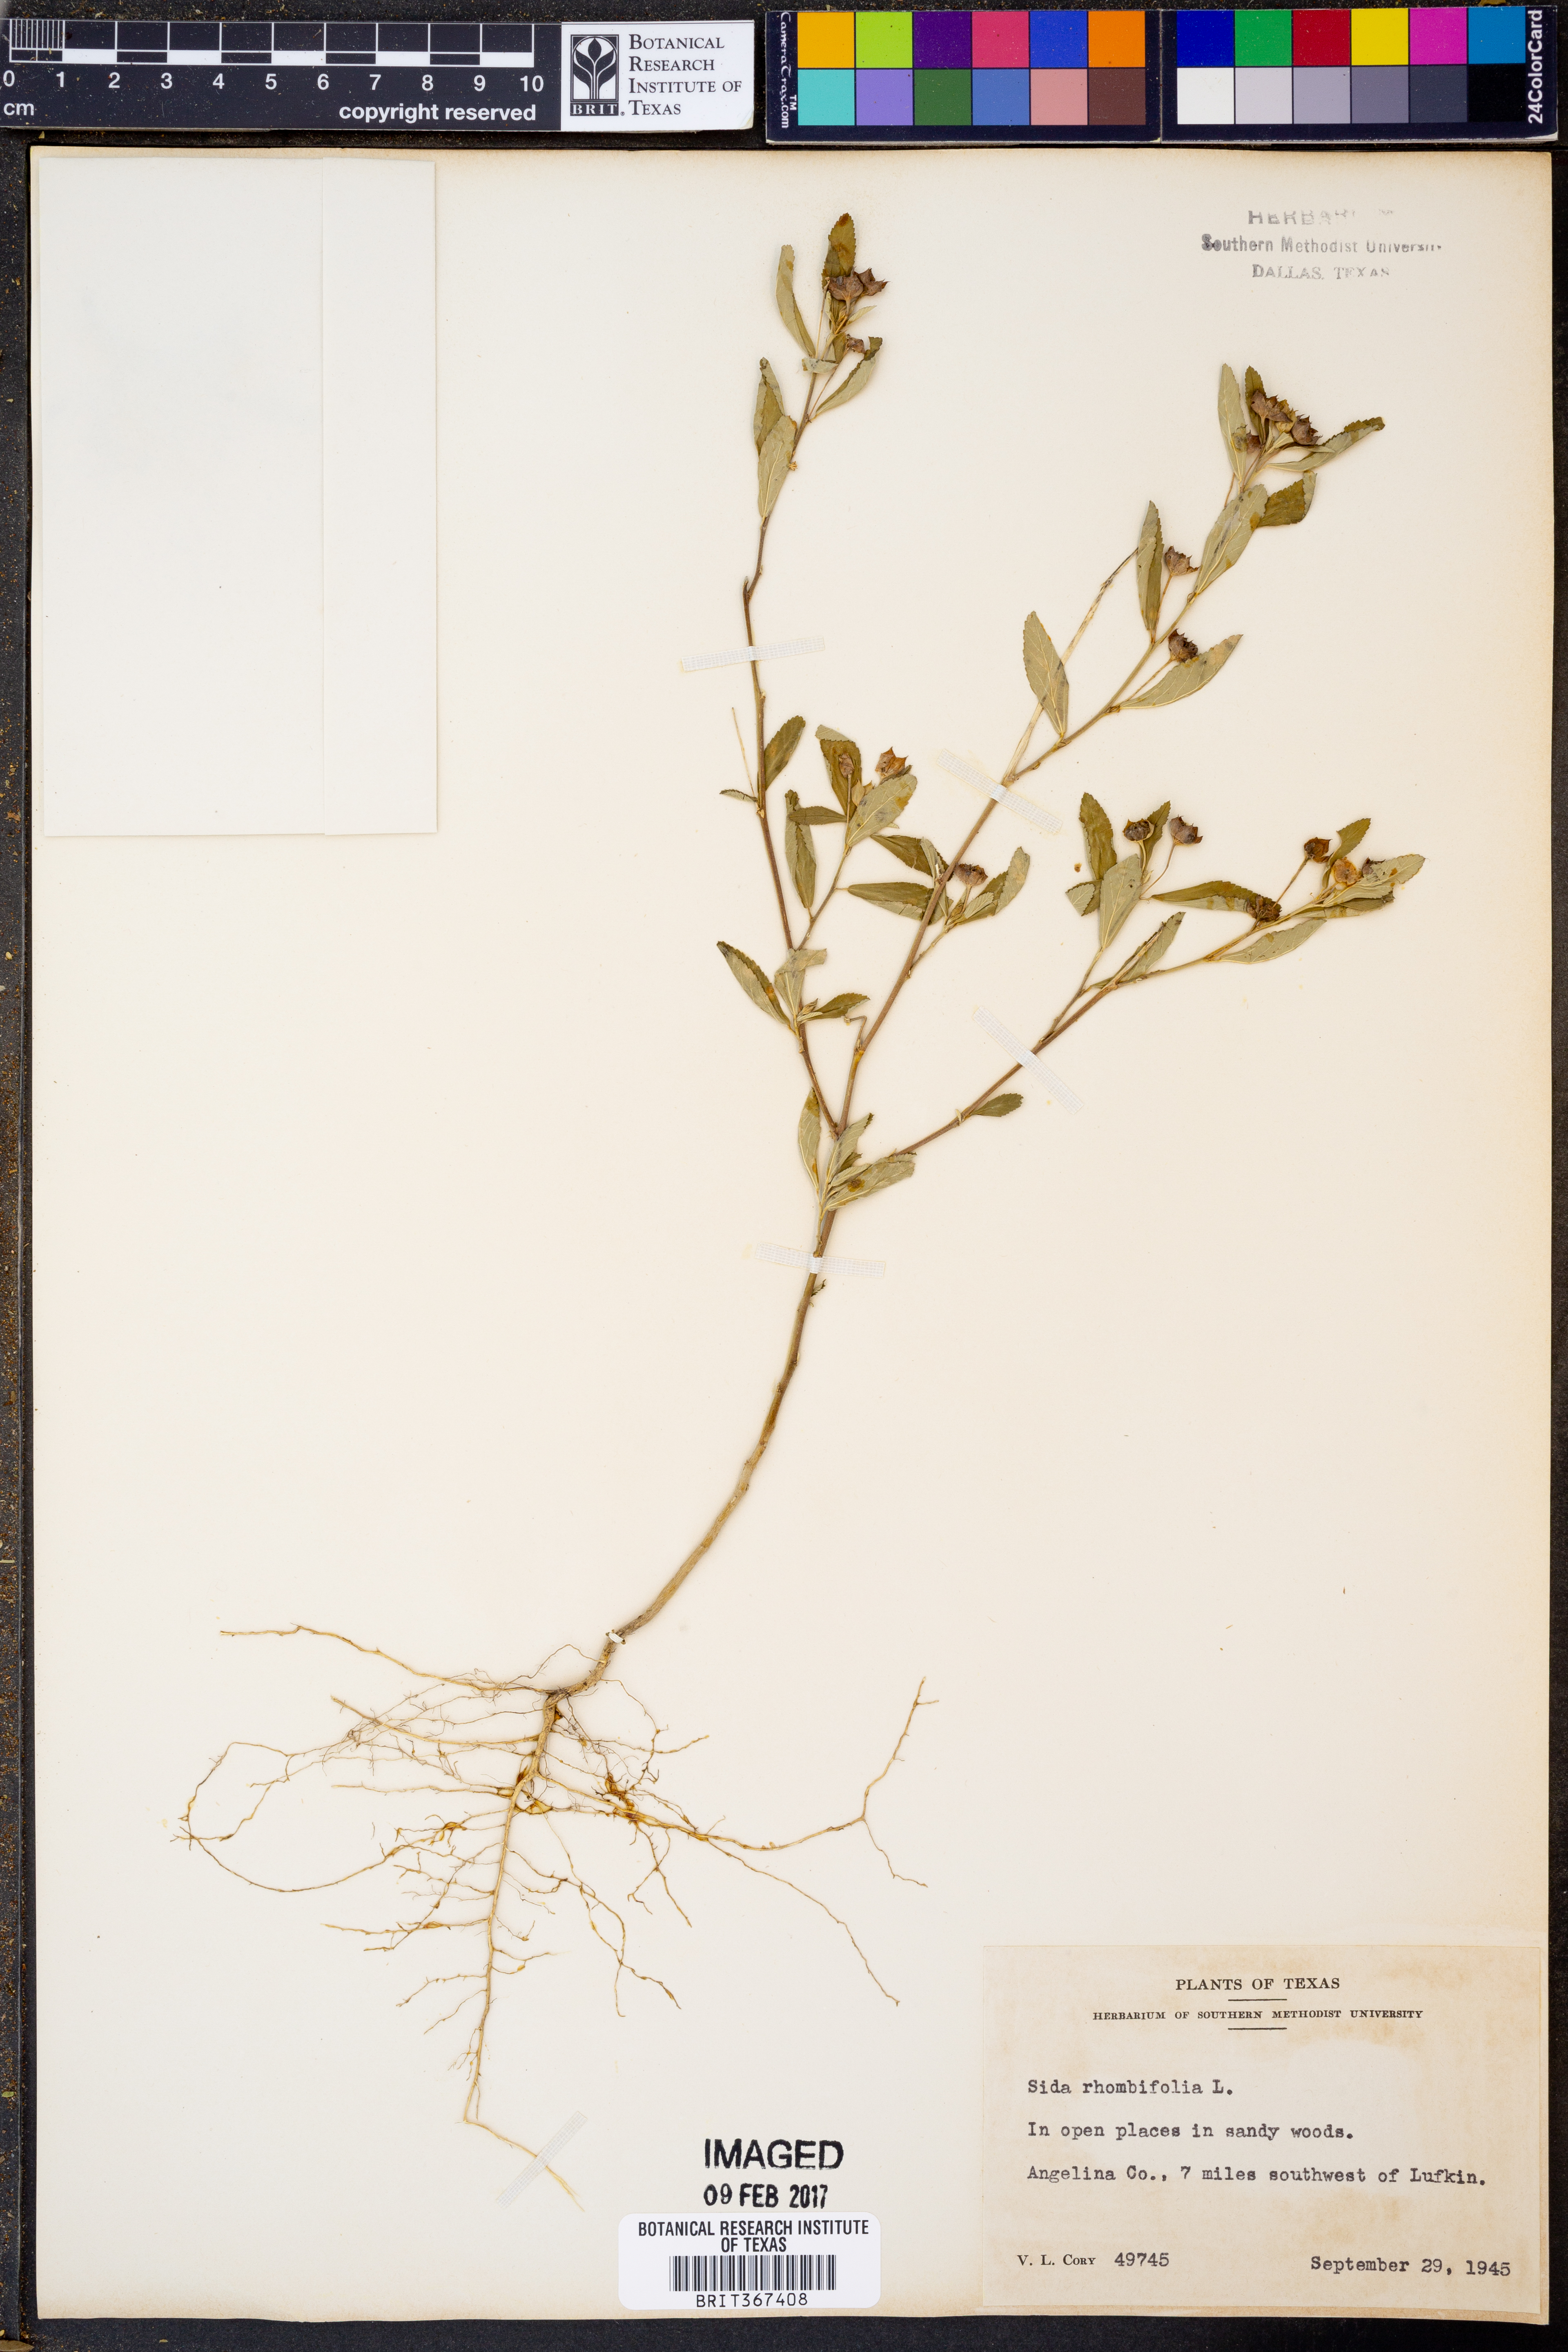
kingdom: Plantae
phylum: Tracheophyta
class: Magnoliopsida
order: Malvales
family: Malvaceae
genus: Sida
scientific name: Sida rhombifolia
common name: Queensland-hemp
